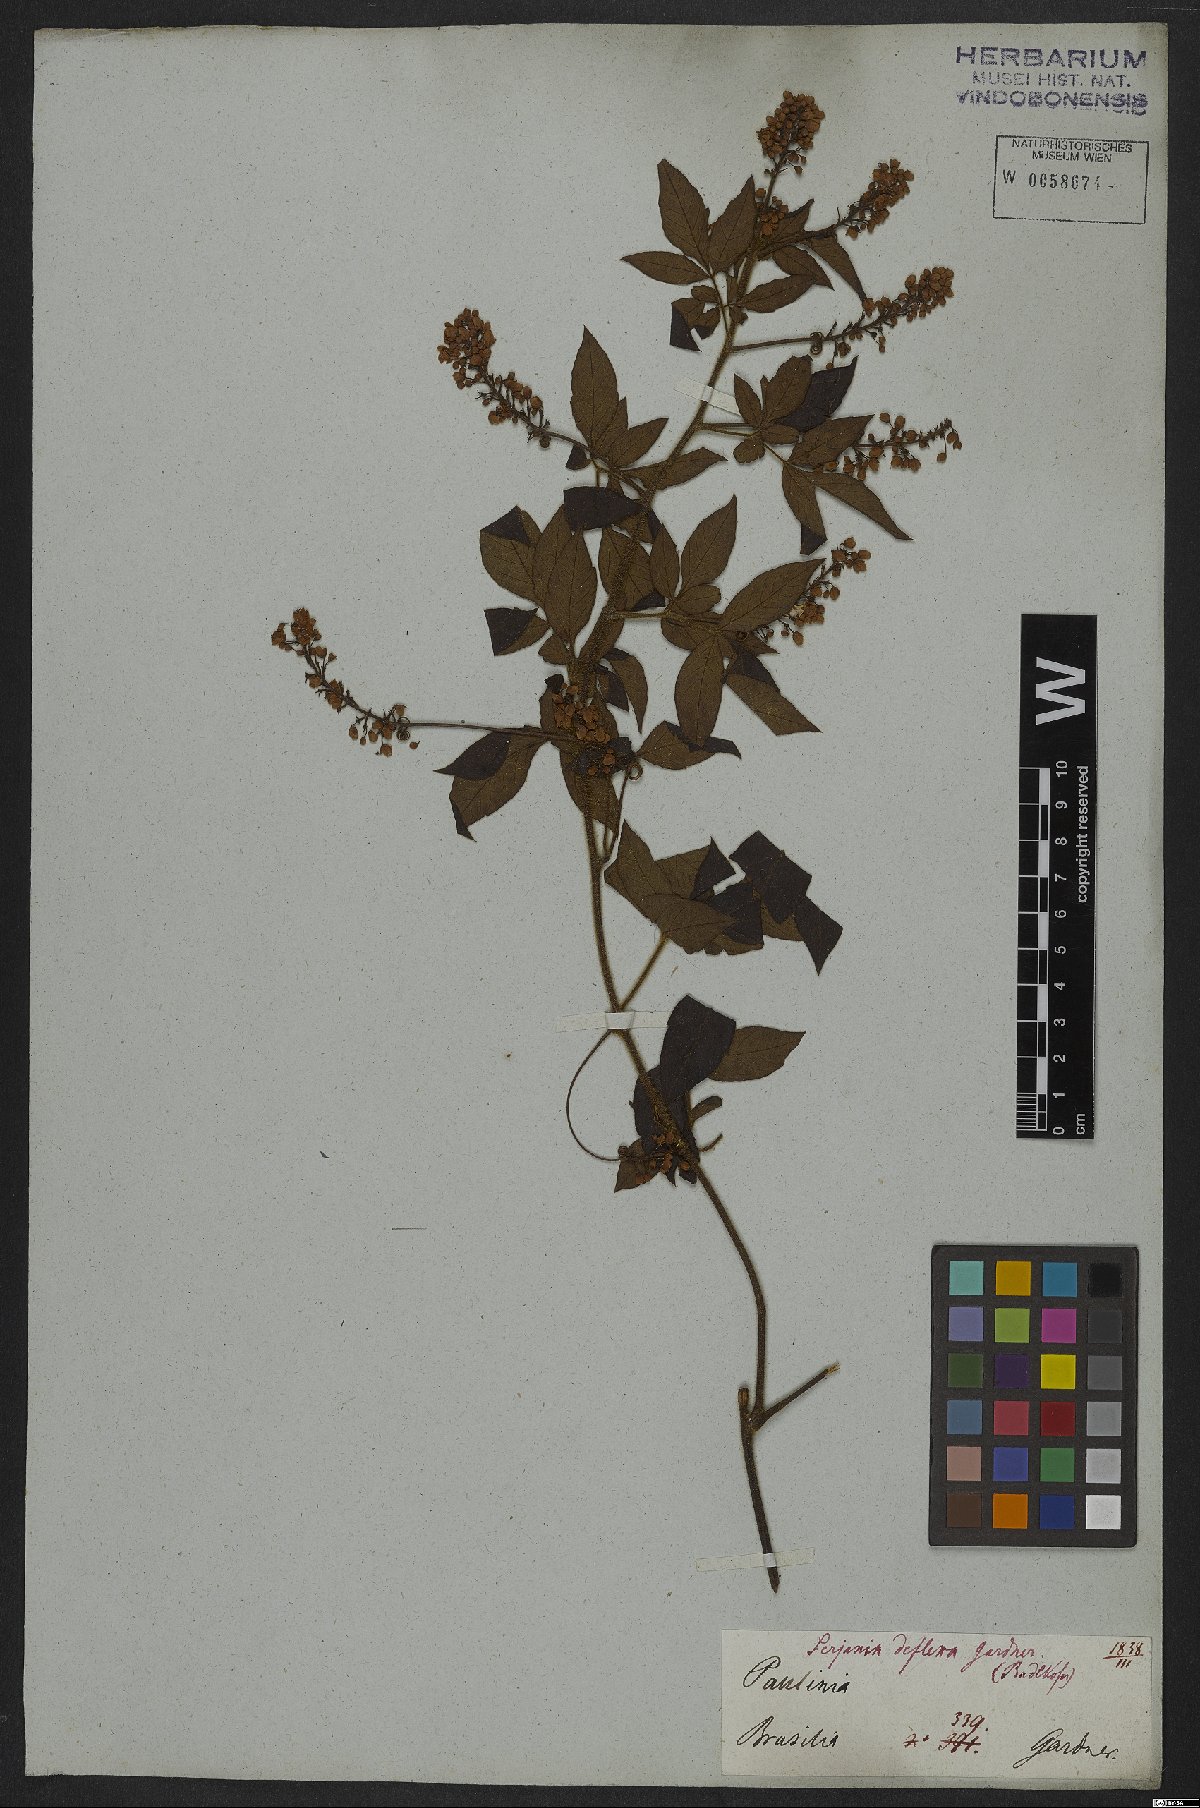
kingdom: Plantae
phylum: Tracheophyta
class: Magnoliopsida
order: Sapindales
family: Sapindaceae
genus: Serjania
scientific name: Serjania deflexa
